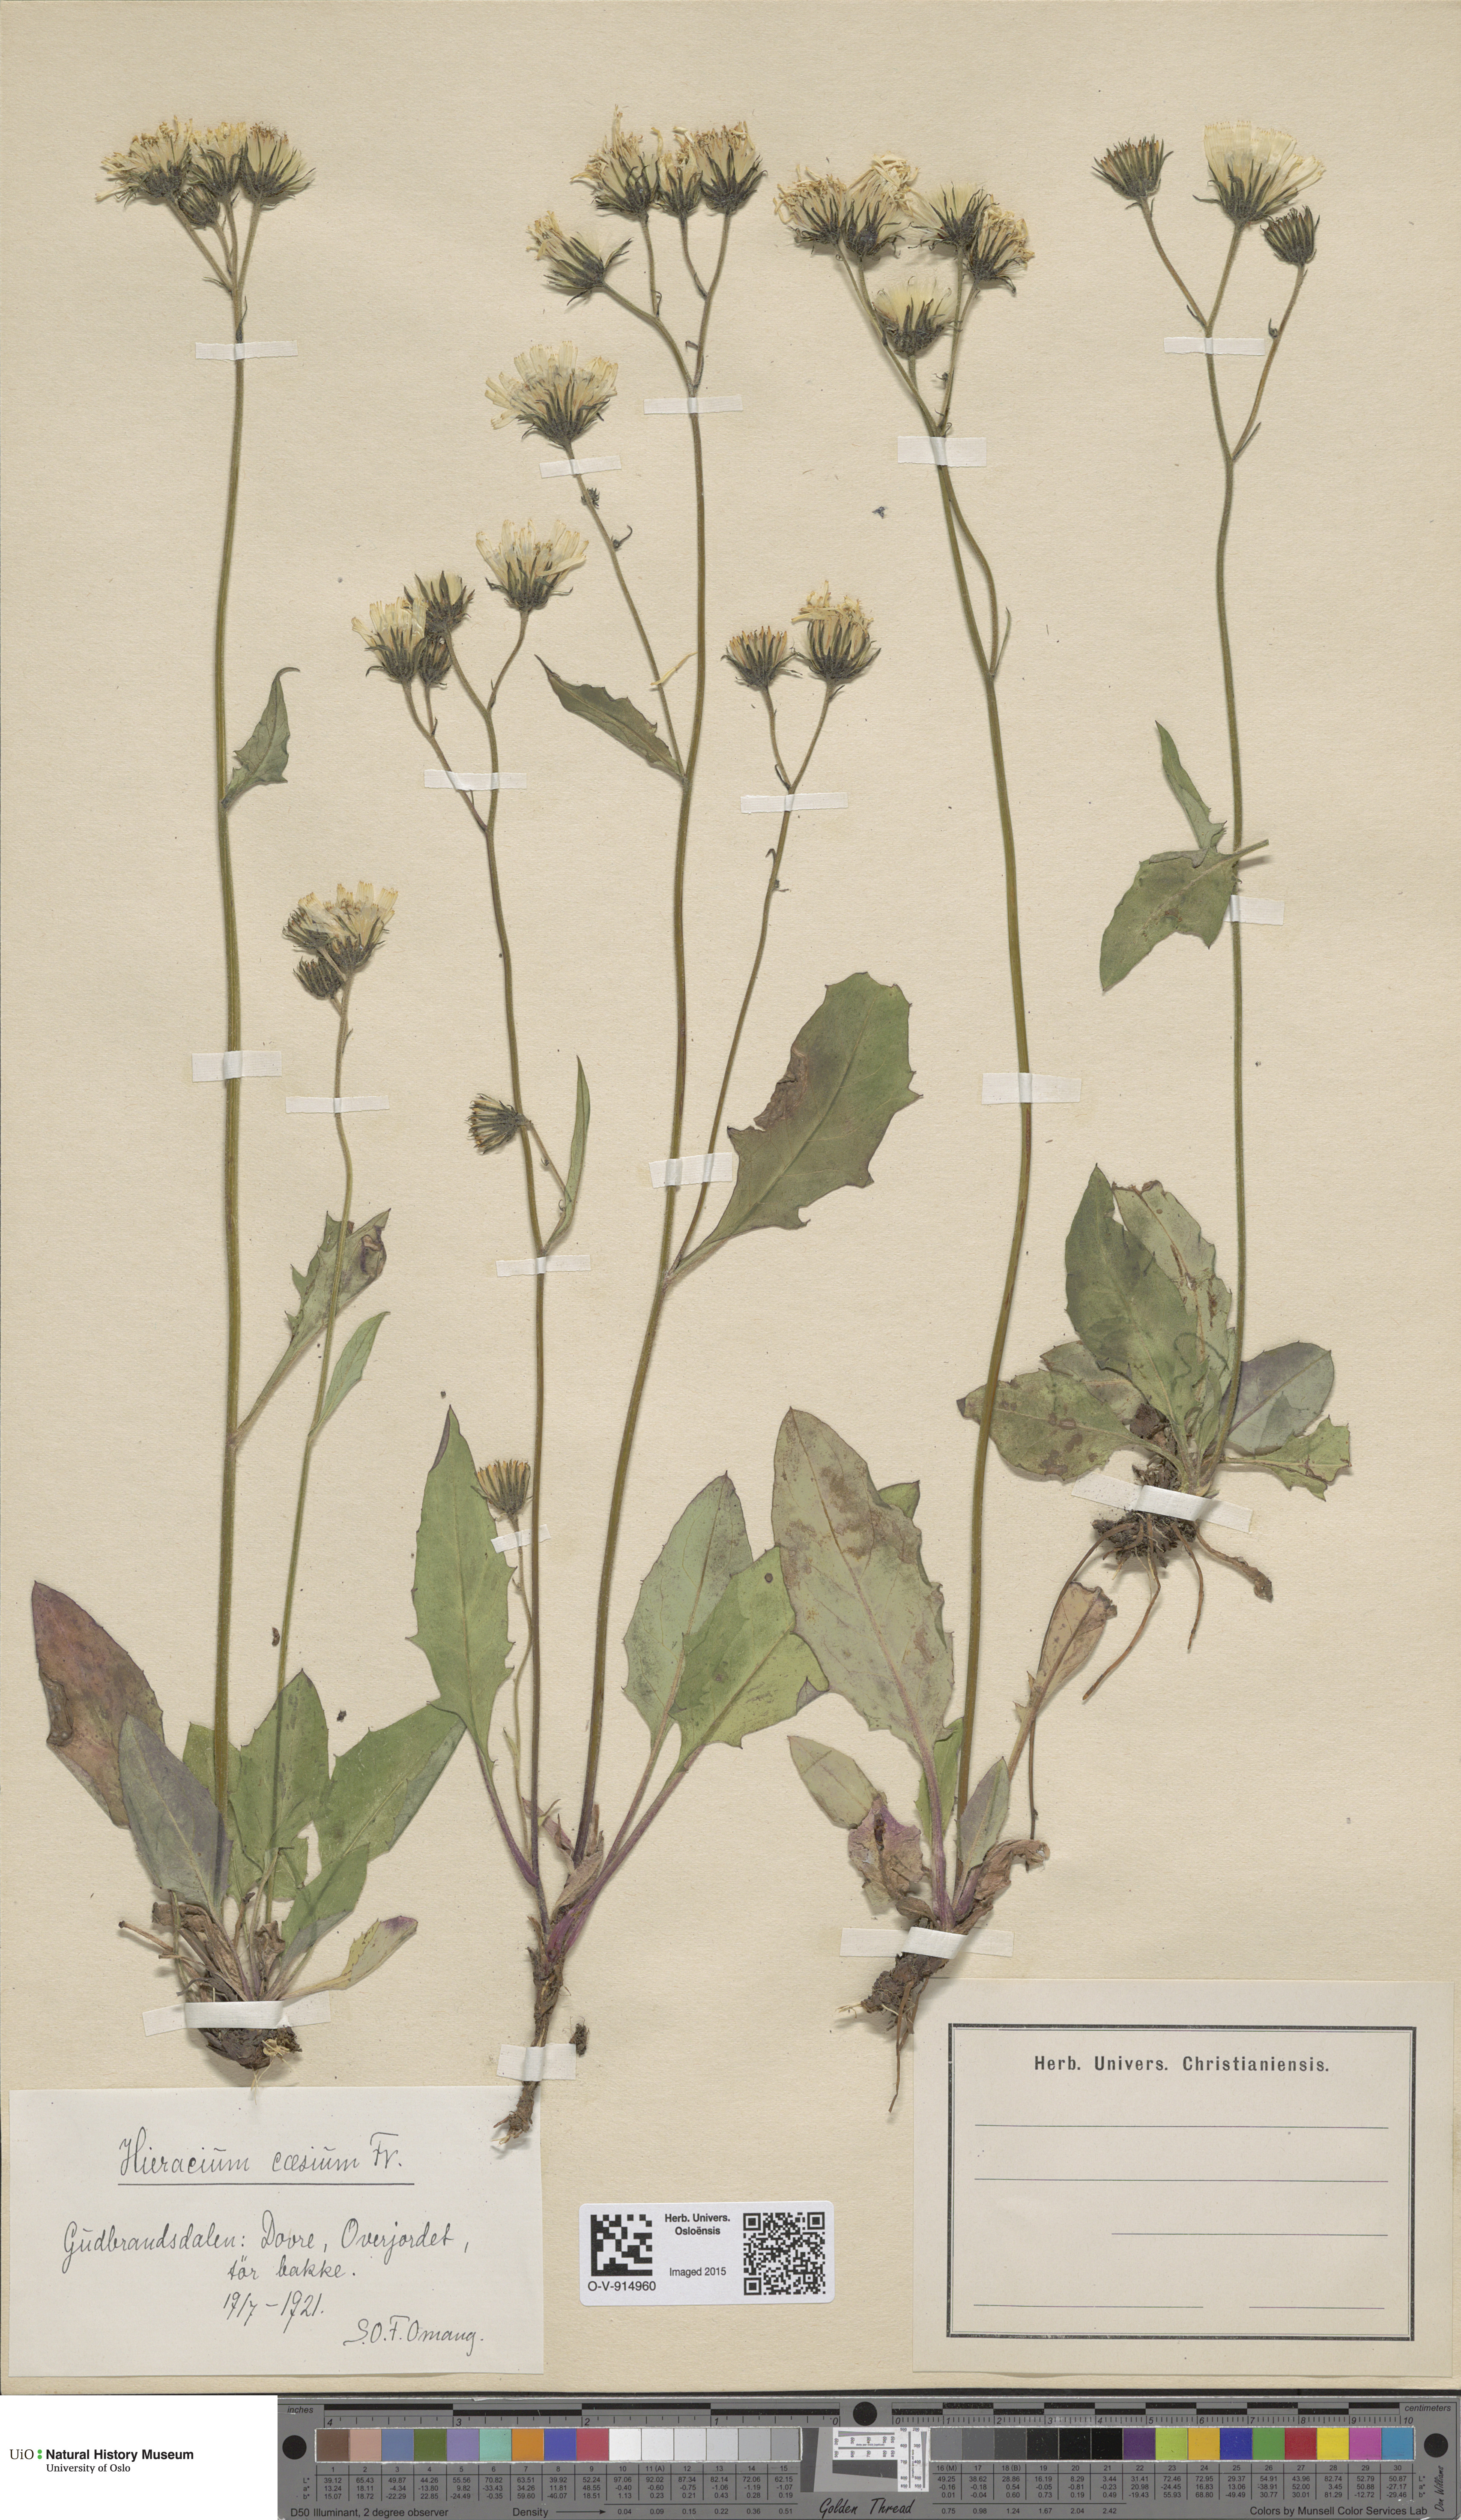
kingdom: Plantae
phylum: Tracheophyta
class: Magnoliopsida
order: Asterales
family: Asteraceae
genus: Hieracium
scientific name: Hieracium caesium
